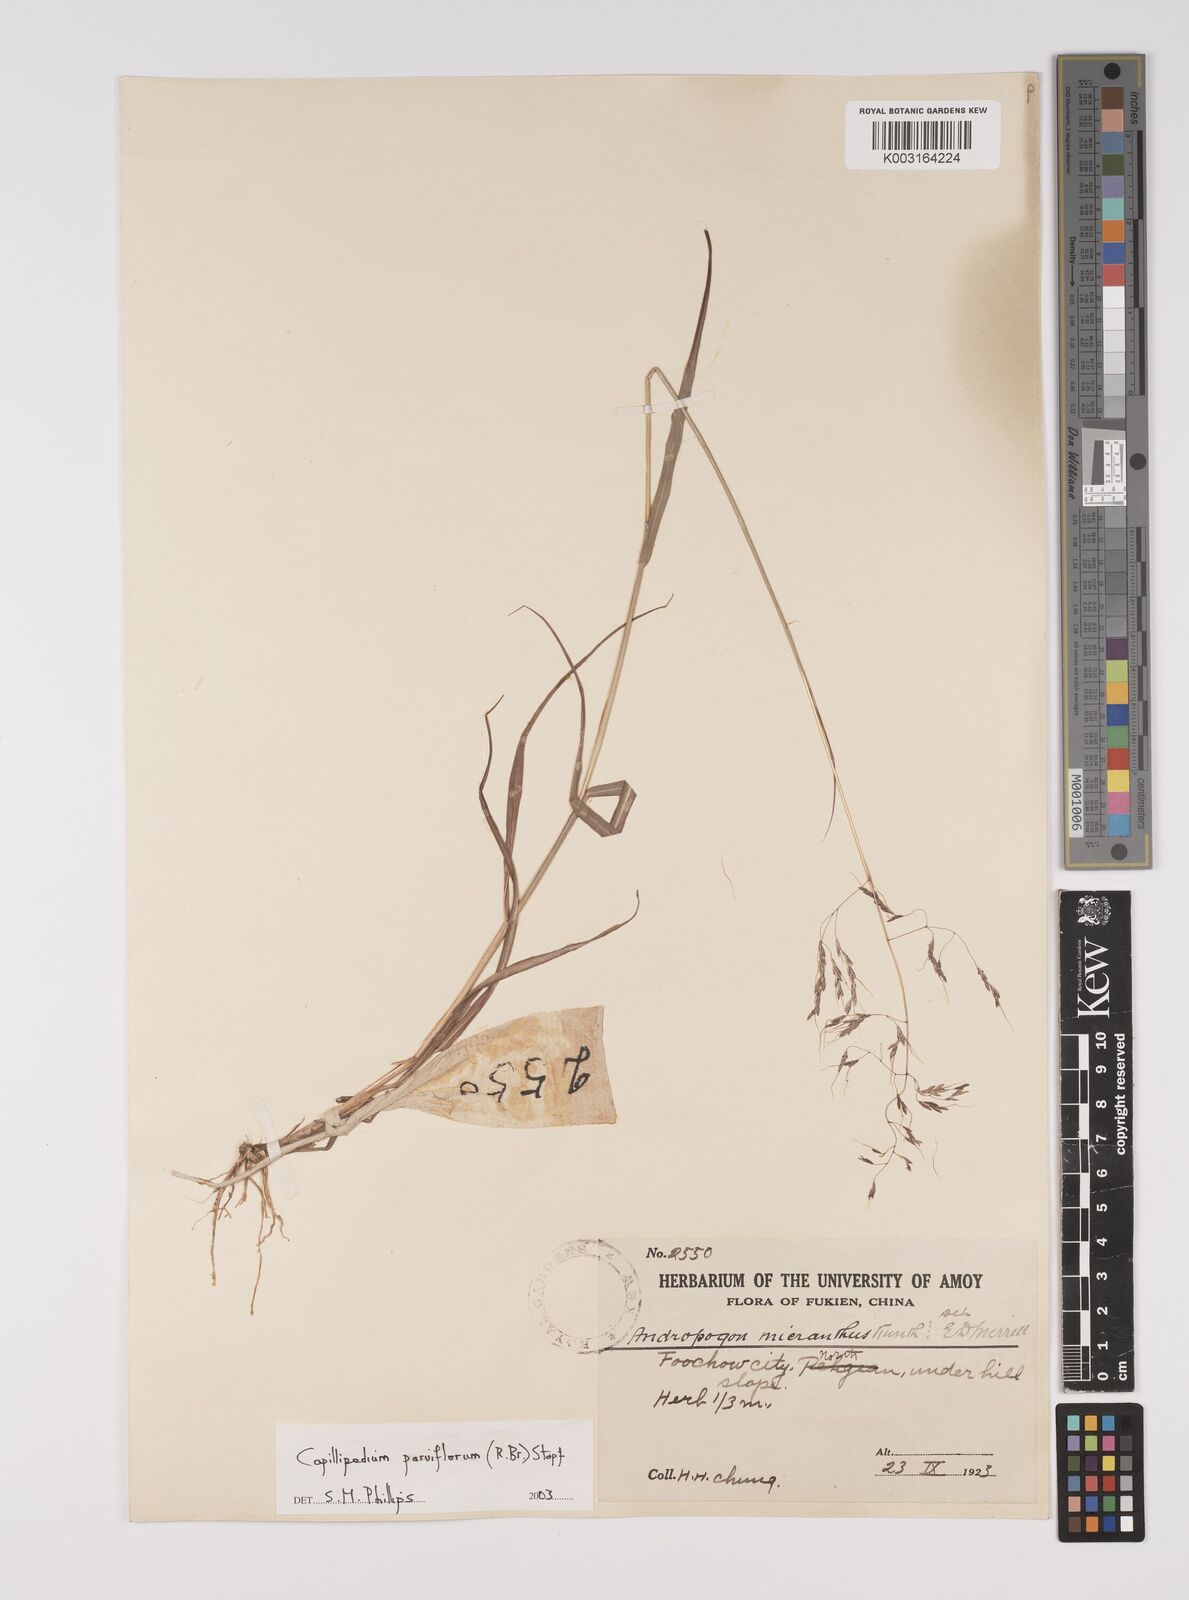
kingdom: Plantae
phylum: Tracheophyta
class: Liliopsida
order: Poales
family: Poaceae
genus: Capillipedium
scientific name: Capillipedium parviflorum
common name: Golden-beard
